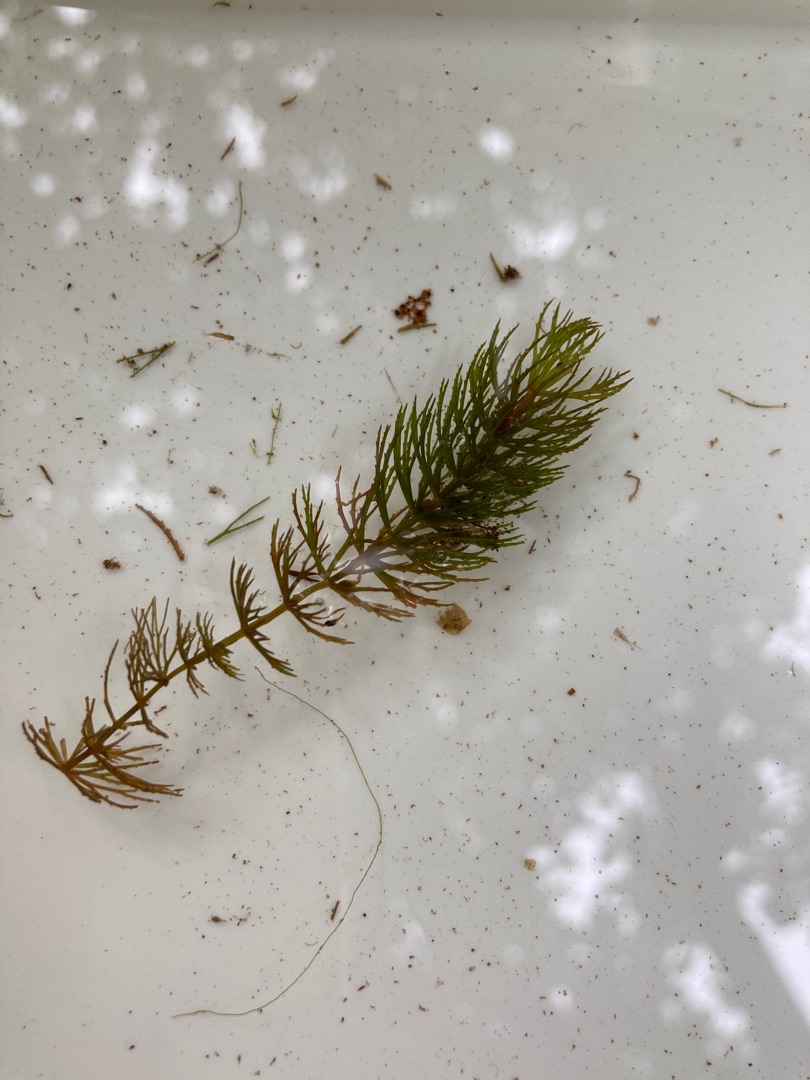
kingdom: Plantae
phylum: Tracheophyta
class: Magnoliopsida
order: Ceratophyllales
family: Ceratophyllaceae
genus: Ceratophyllum
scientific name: Ceratophyllum demersum
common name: Tornfrøet hornblad
